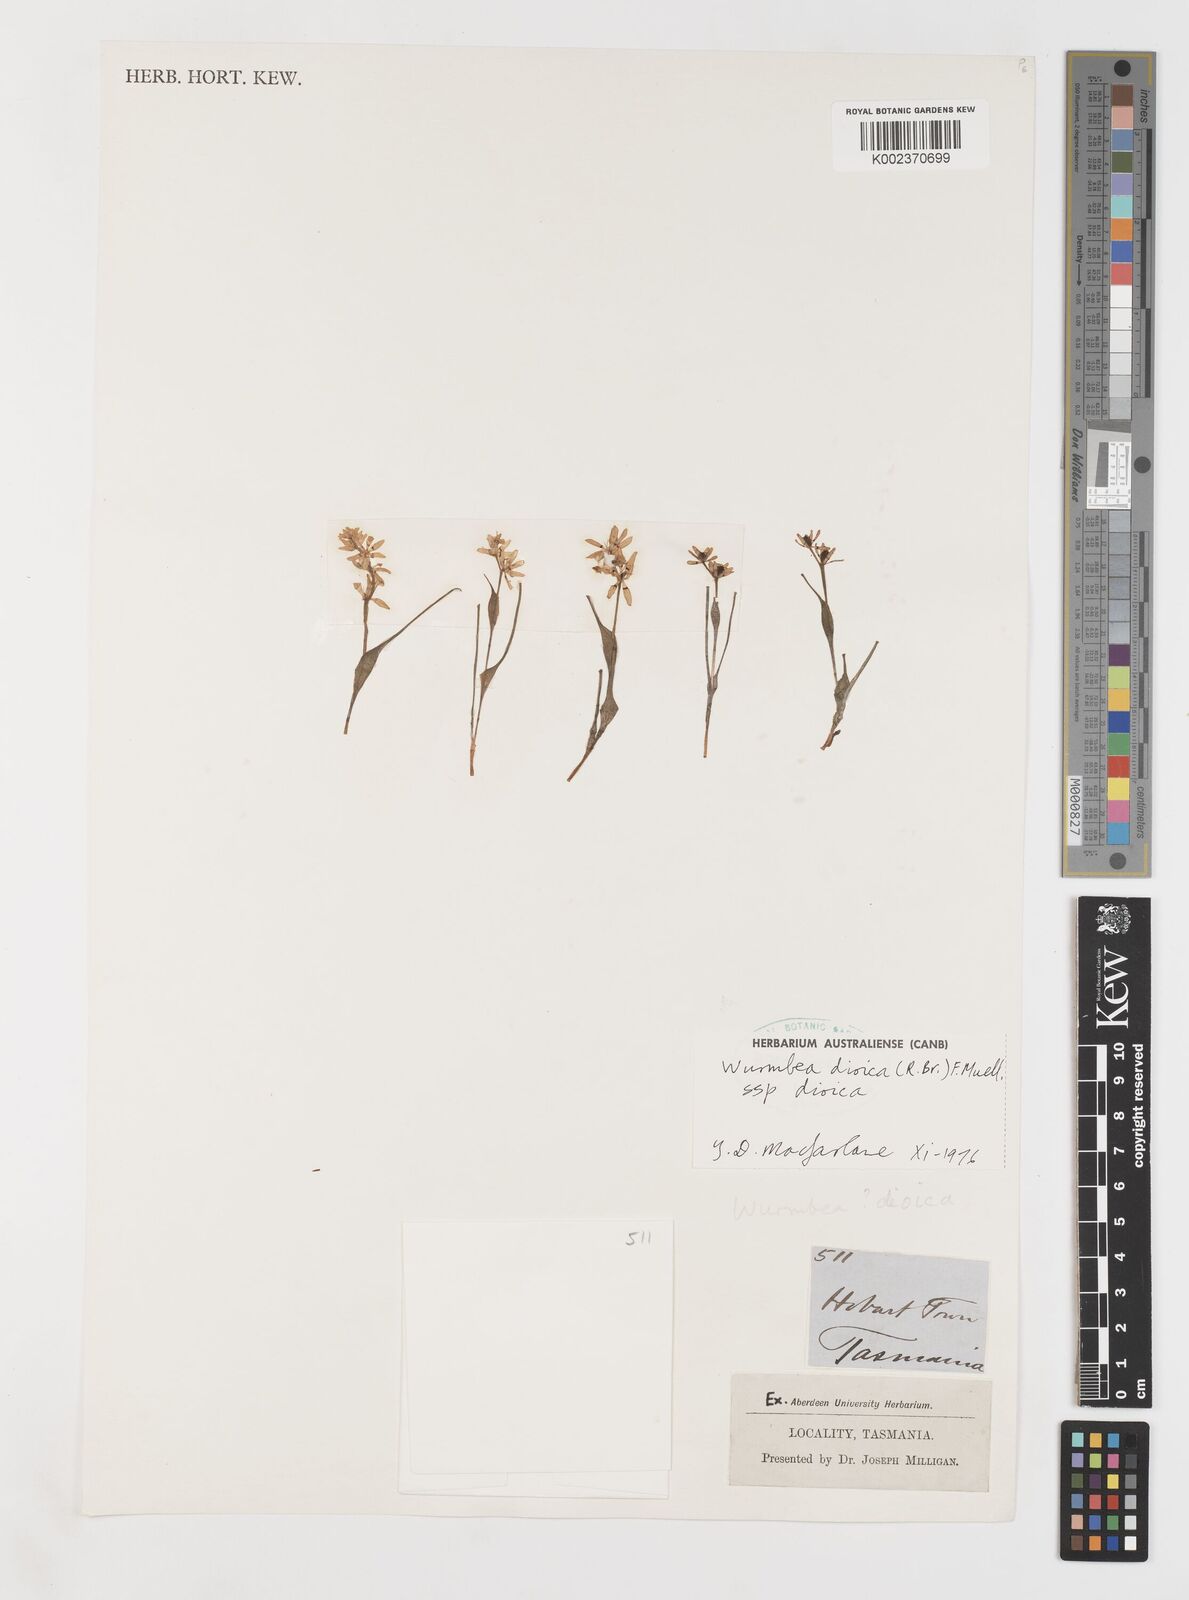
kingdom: Plantae
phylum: Tracheophyta
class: Liliopsida
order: Liliales
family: Colchicaceae
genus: Wurmbea
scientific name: Wurmbea dioica
